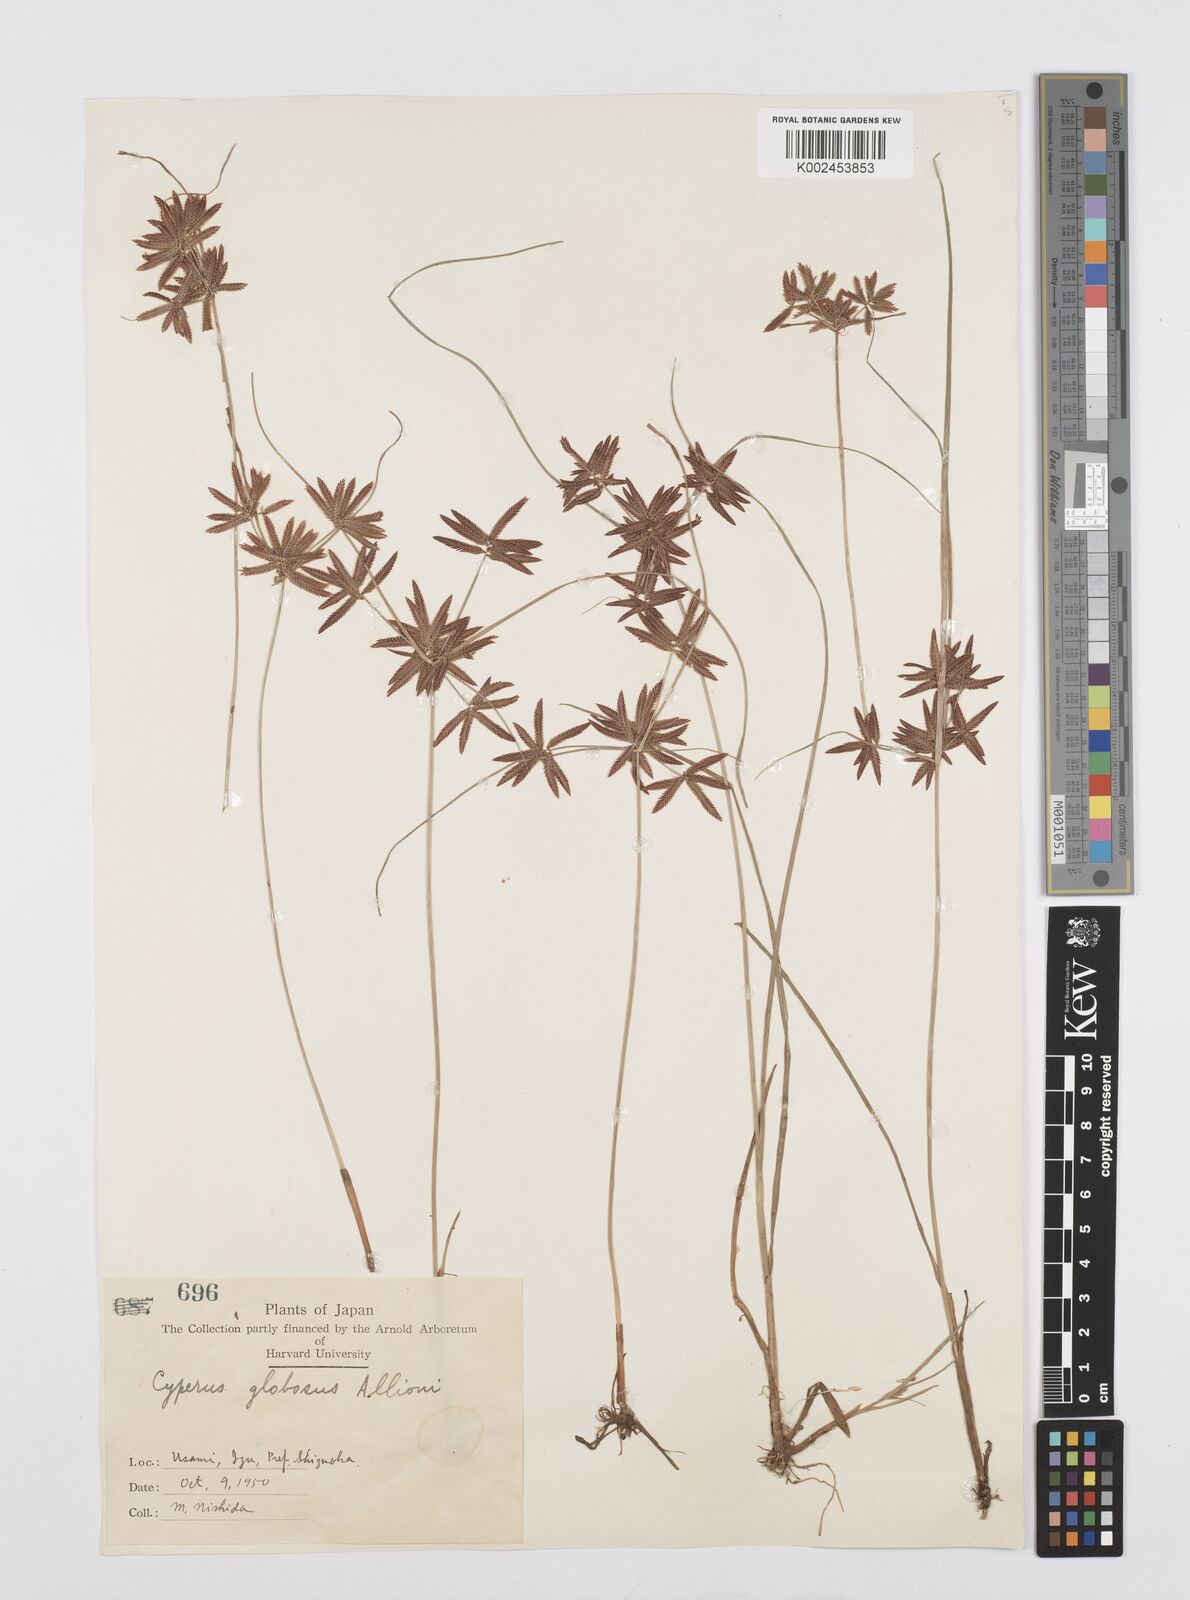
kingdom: Plantae
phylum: Tracheophyta
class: Liliopsida
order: Poales
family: Cyperaceae
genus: Cyperus
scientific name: Cyperus flavidus
